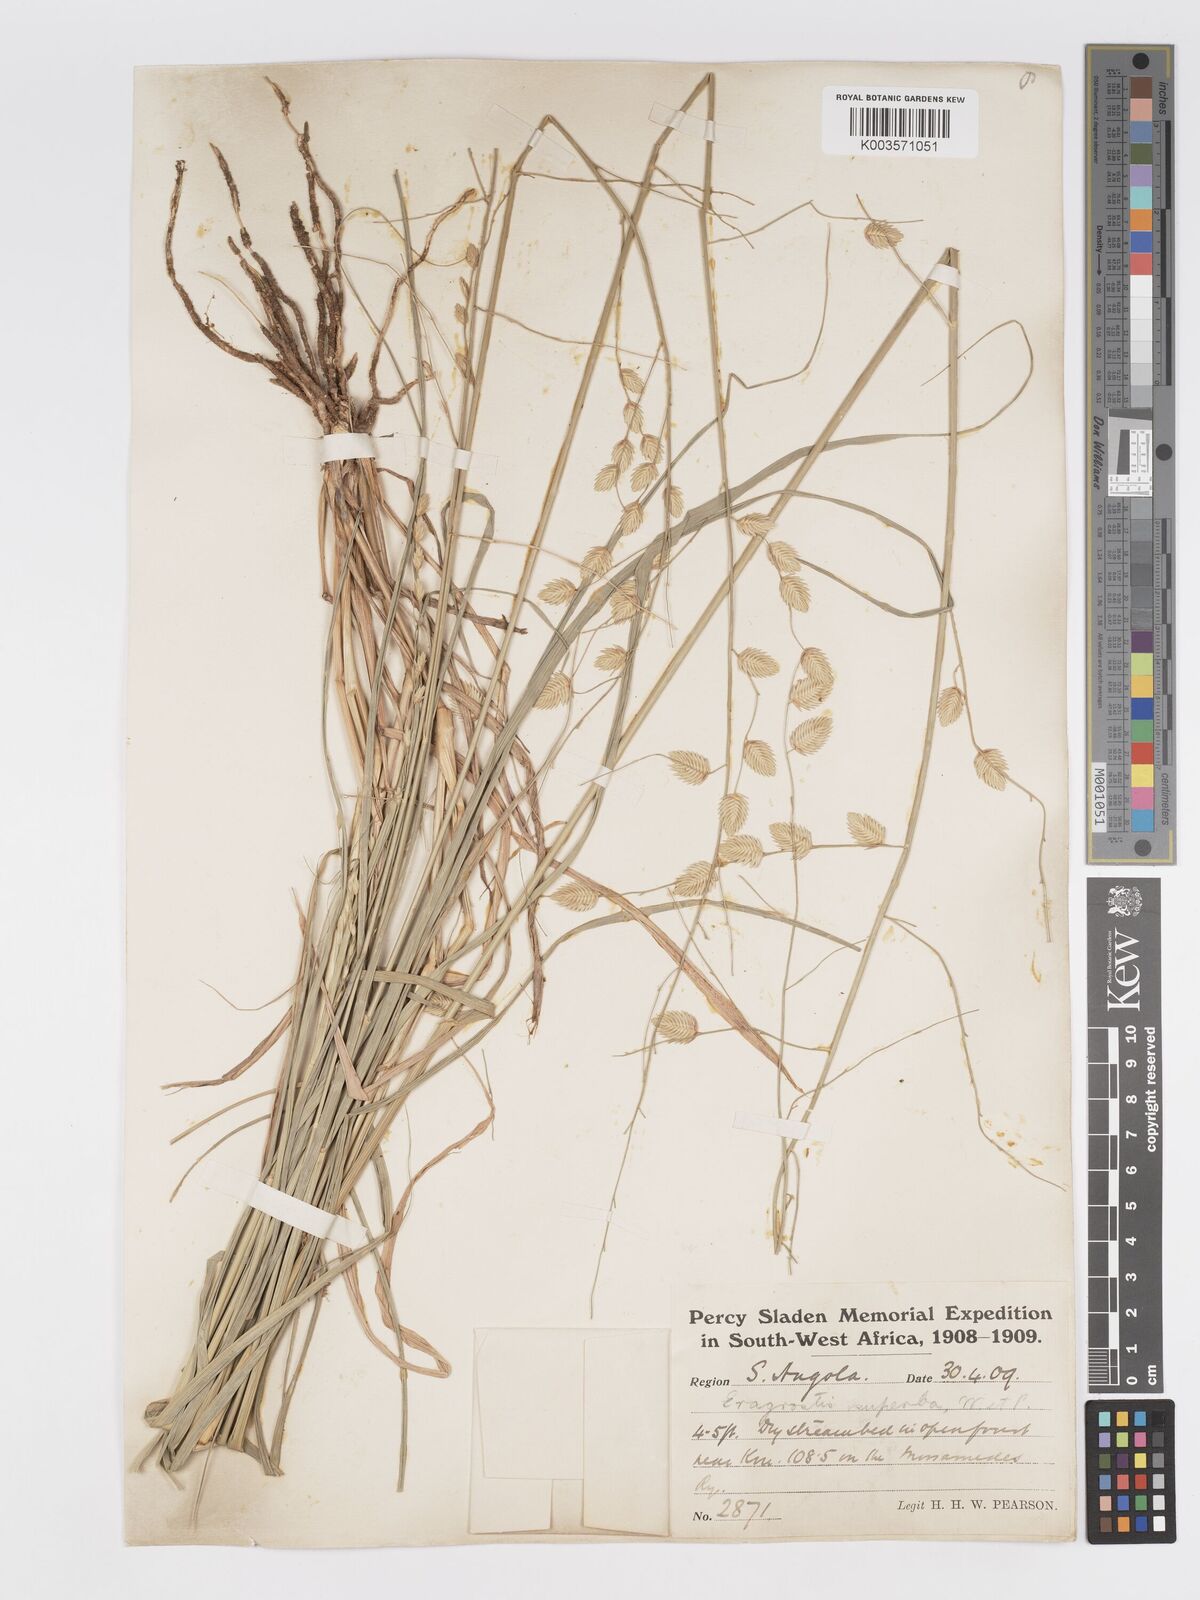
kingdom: Plantae
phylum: Tracheophyta
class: Liliopsida
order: Poales
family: Poaceae
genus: Eragrostis
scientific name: Eragrostis superba
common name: Wilman lovegrass
